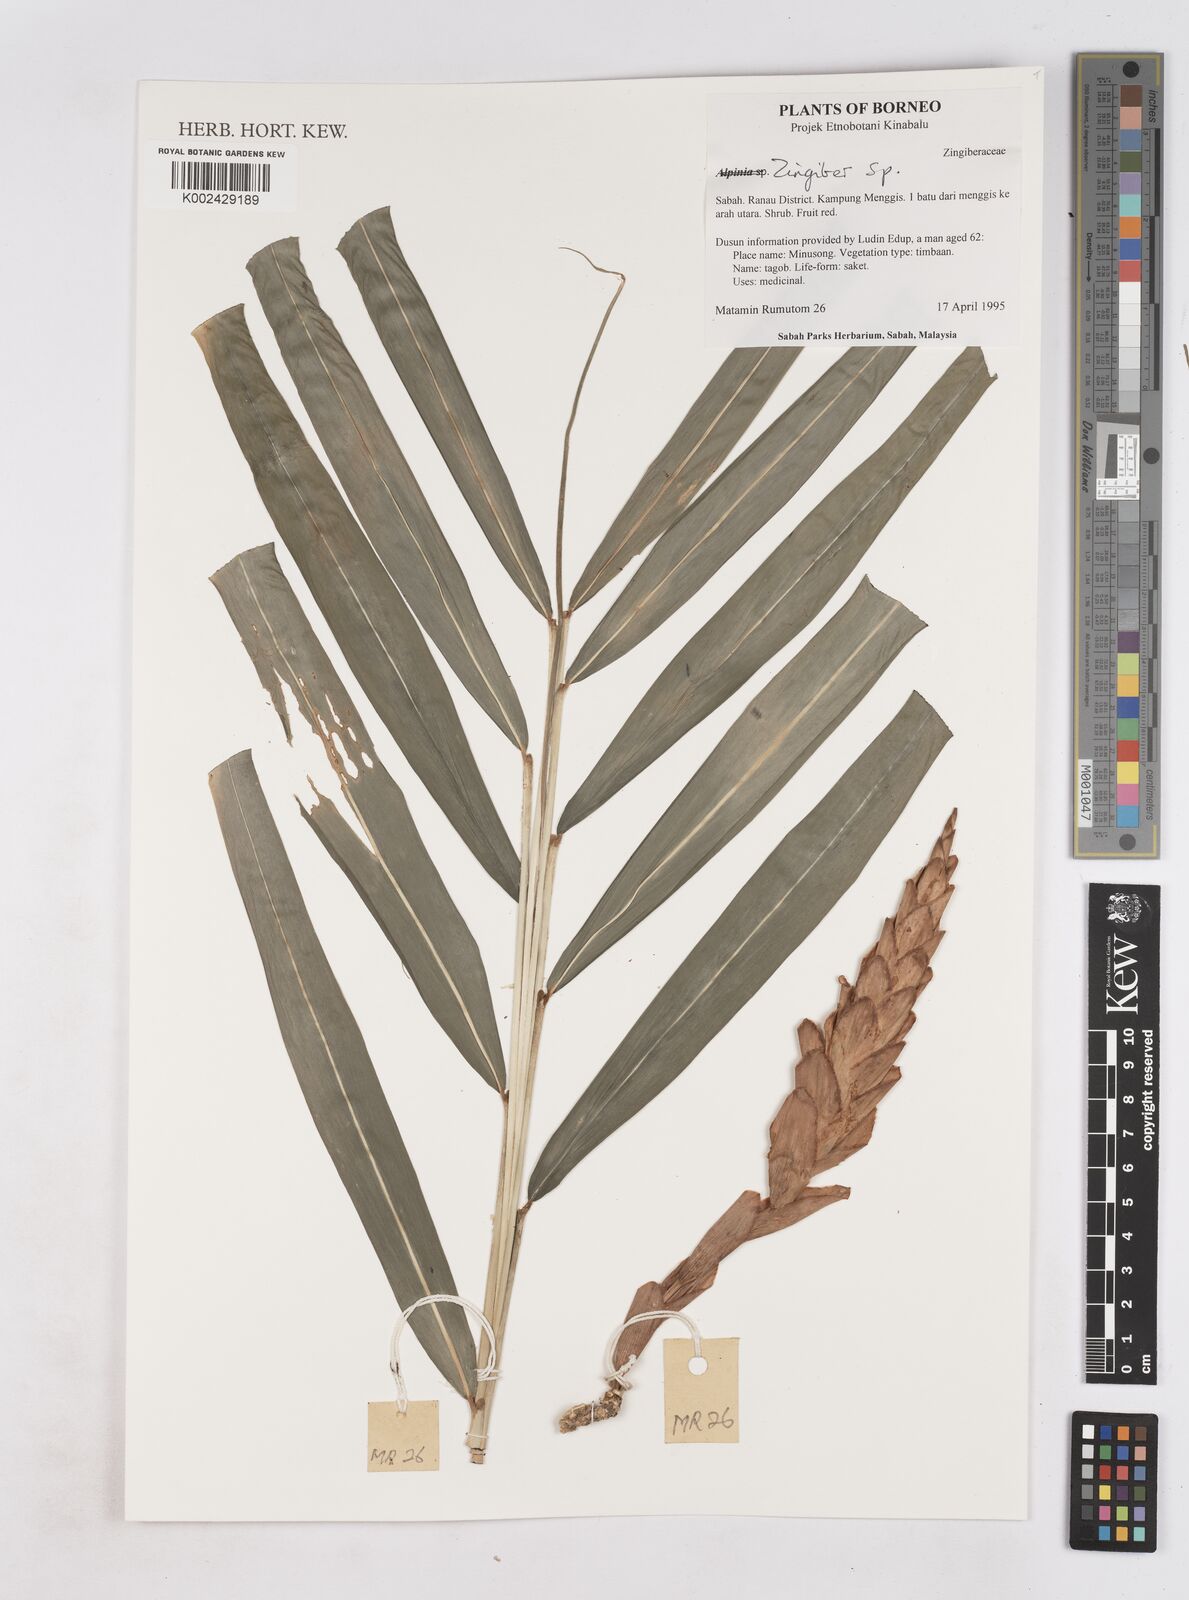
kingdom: Plantae
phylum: Tracheophyta
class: Liliopsida
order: Zingiberales
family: Zingiberaceae
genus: Zingiber
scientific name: Zingiber
